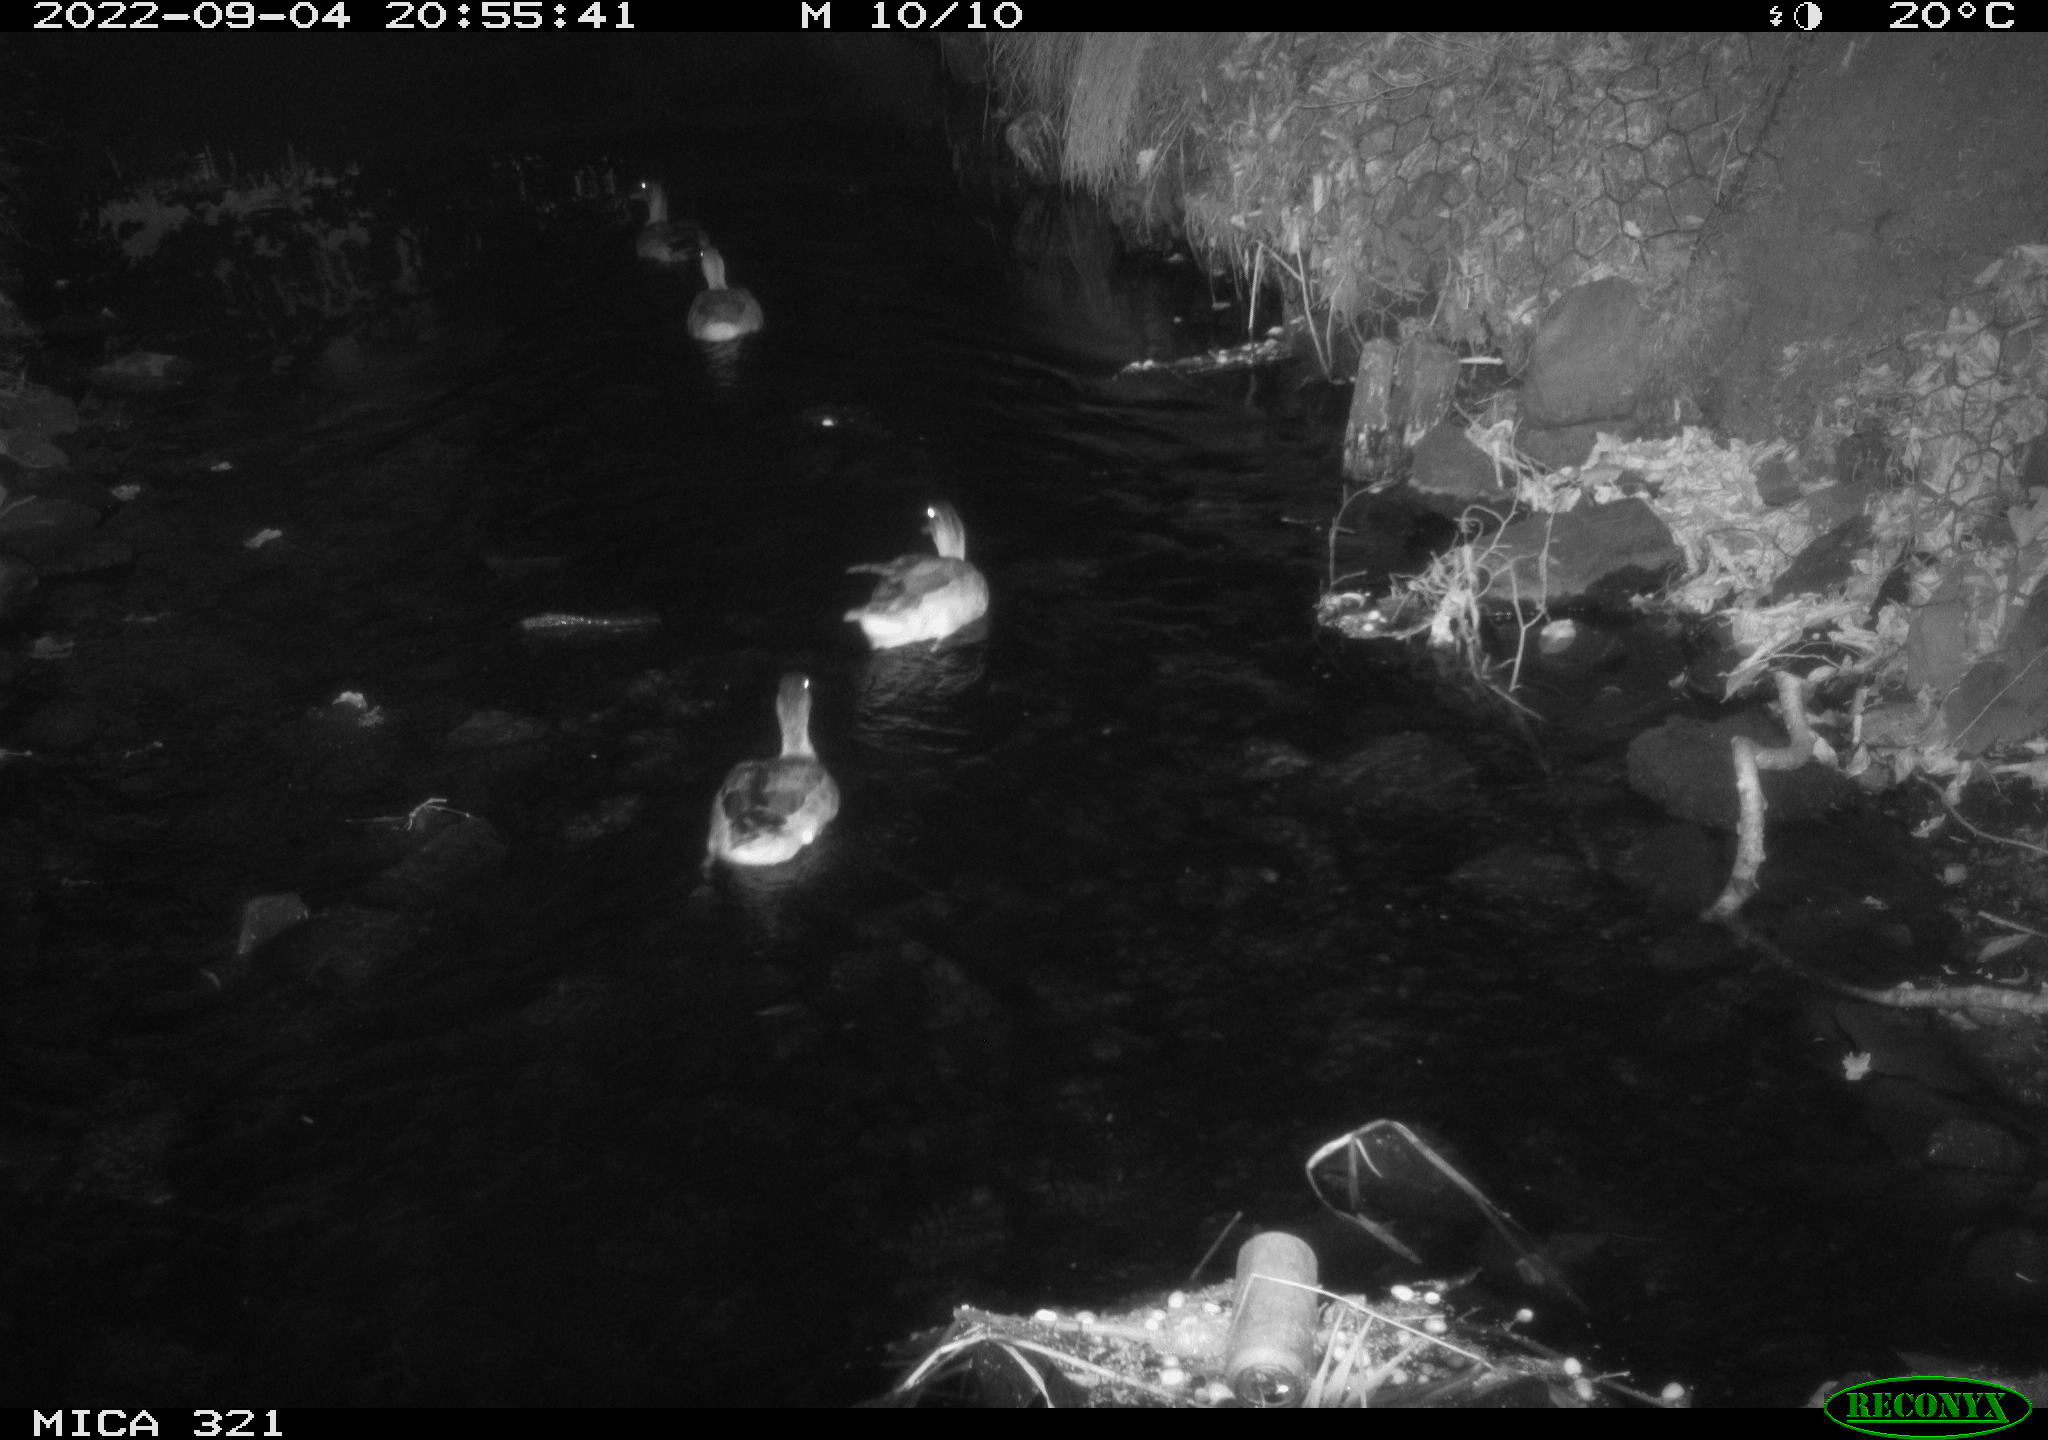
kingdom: Animalia
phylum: Chordata
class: Aves
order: Anseriformes
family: Anatidae
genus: Anas
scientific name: Anas platyrhynchos
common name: Mallard
